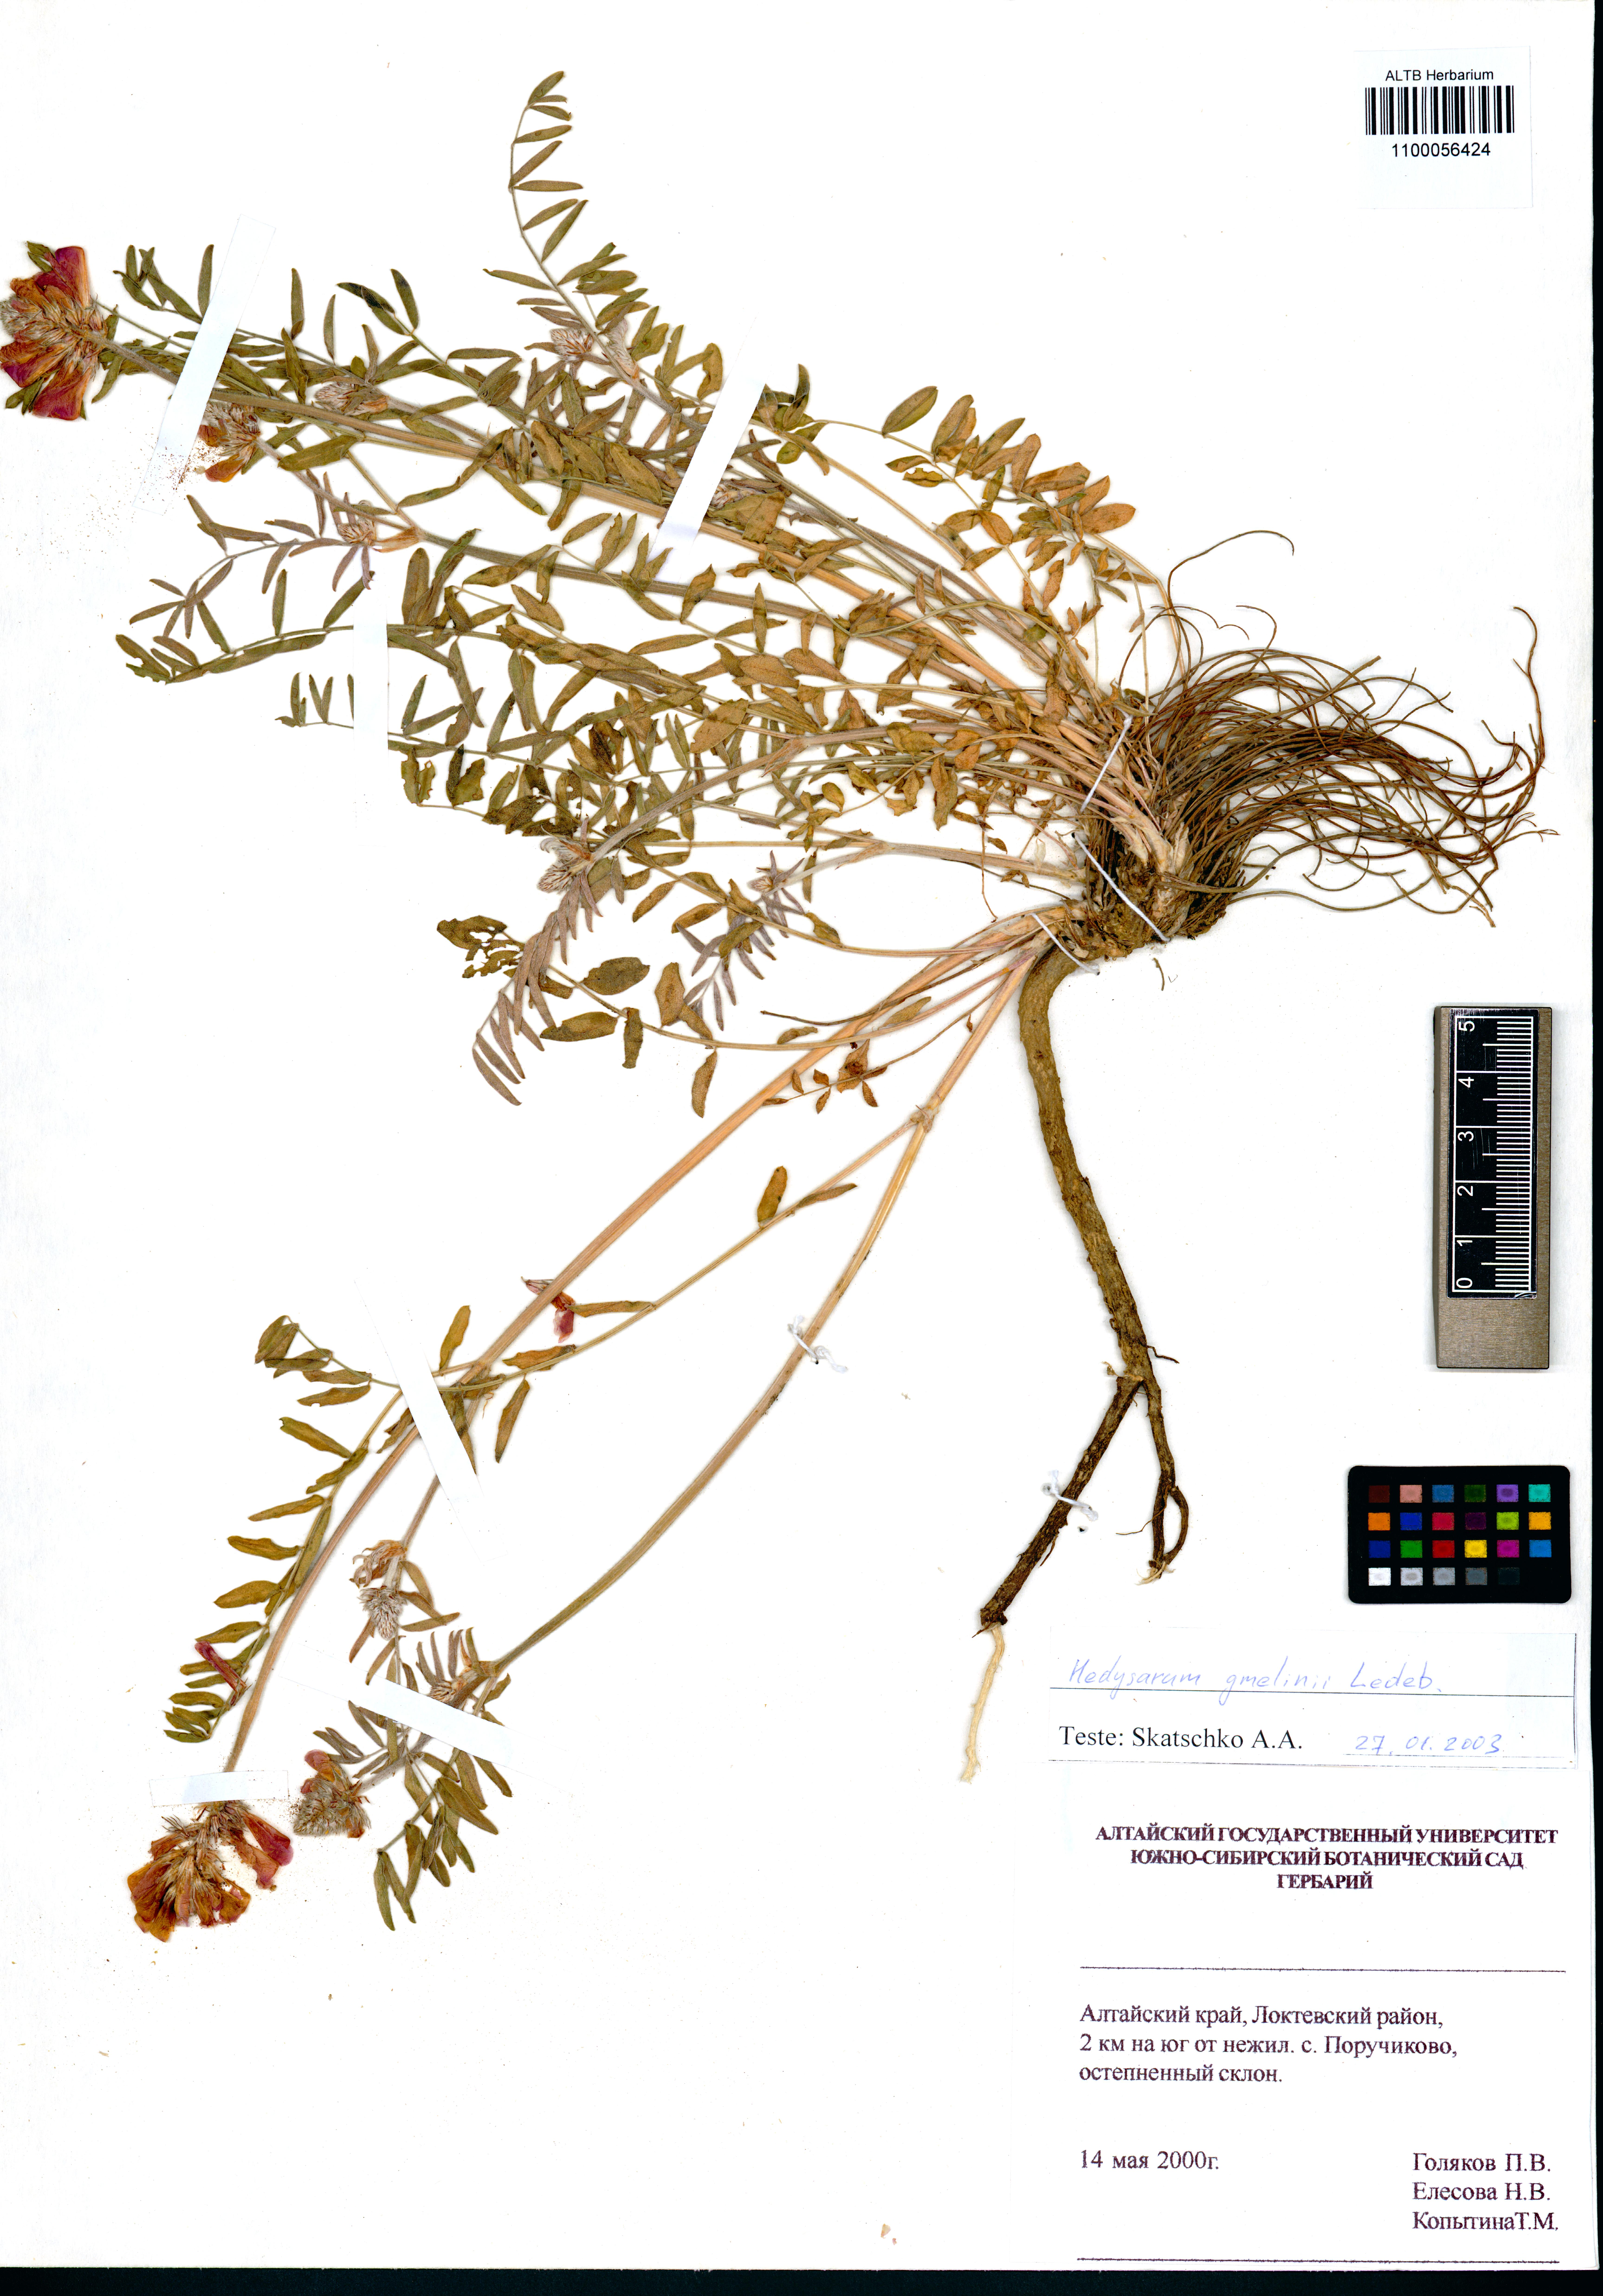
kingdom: Plantae
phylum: Tracheophyta
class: Magnoliopsida
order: Fabales
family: Fabaceae
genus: Hedysarum
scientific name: Hedysarum gmelinii
